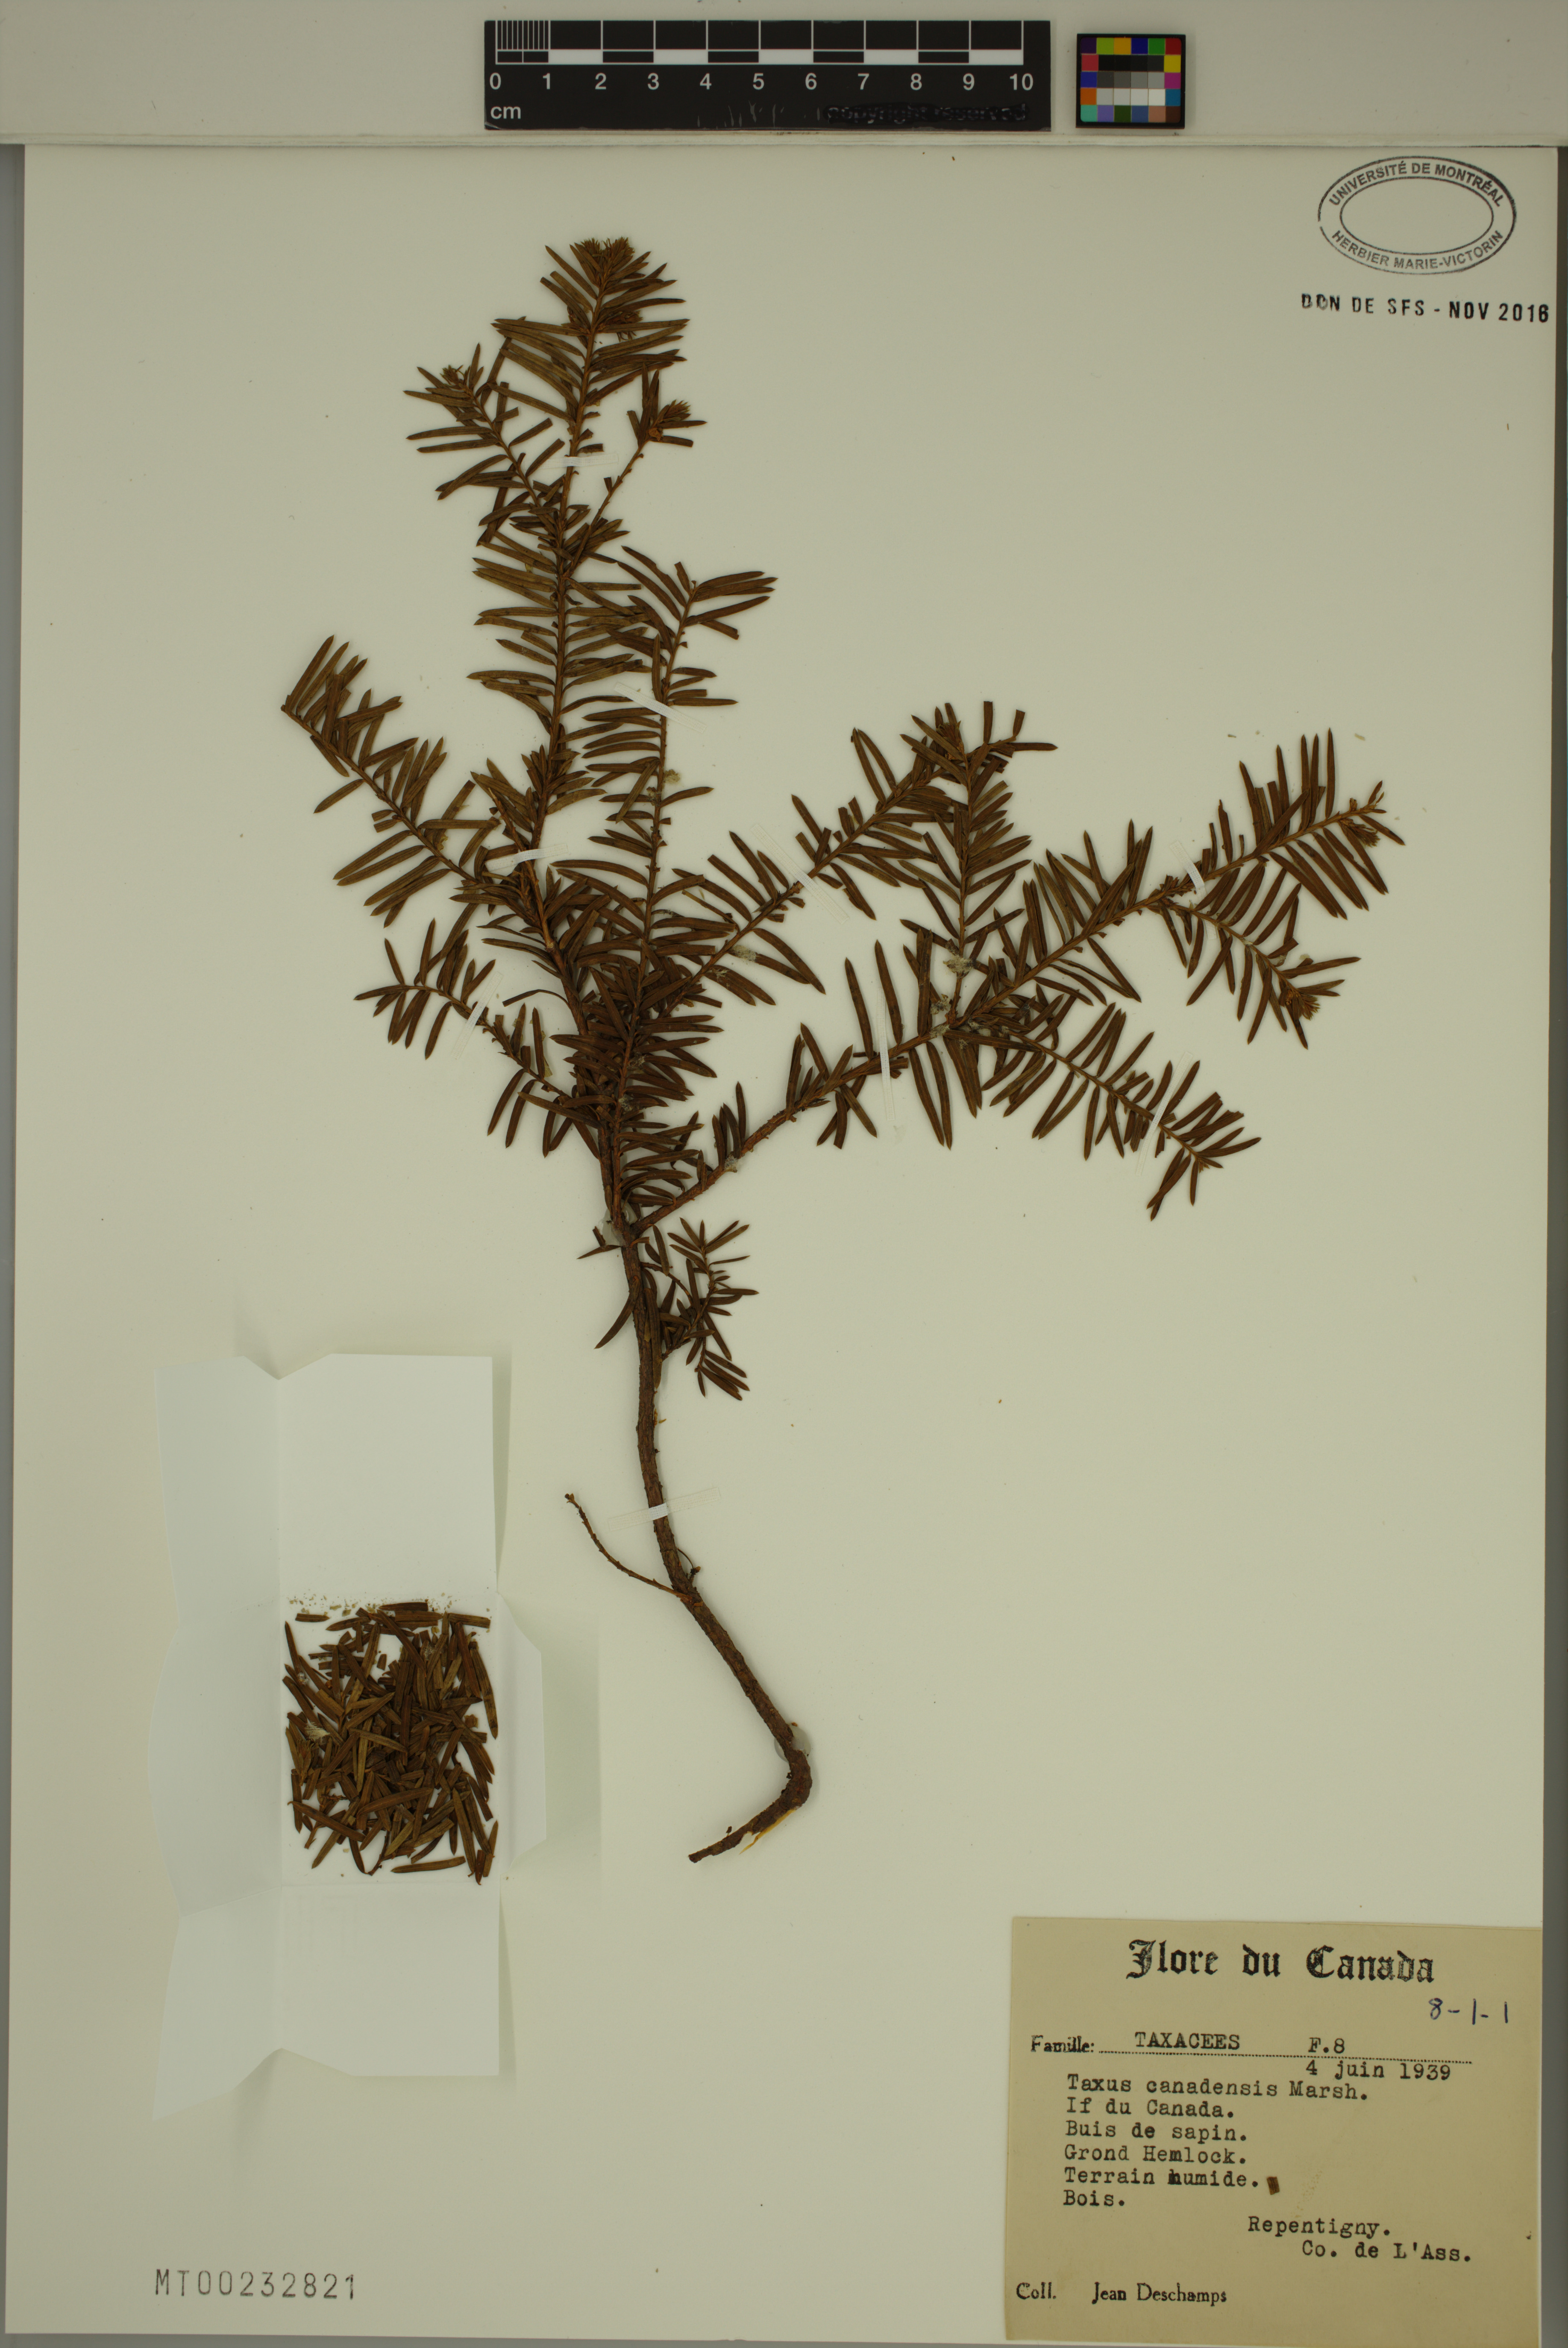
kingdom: Plantae
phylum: Tracheophyta
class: Pinopsida
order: Pinales
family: Taxaceae
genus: Taxus
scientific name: Taxus canadensis
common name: American yew
